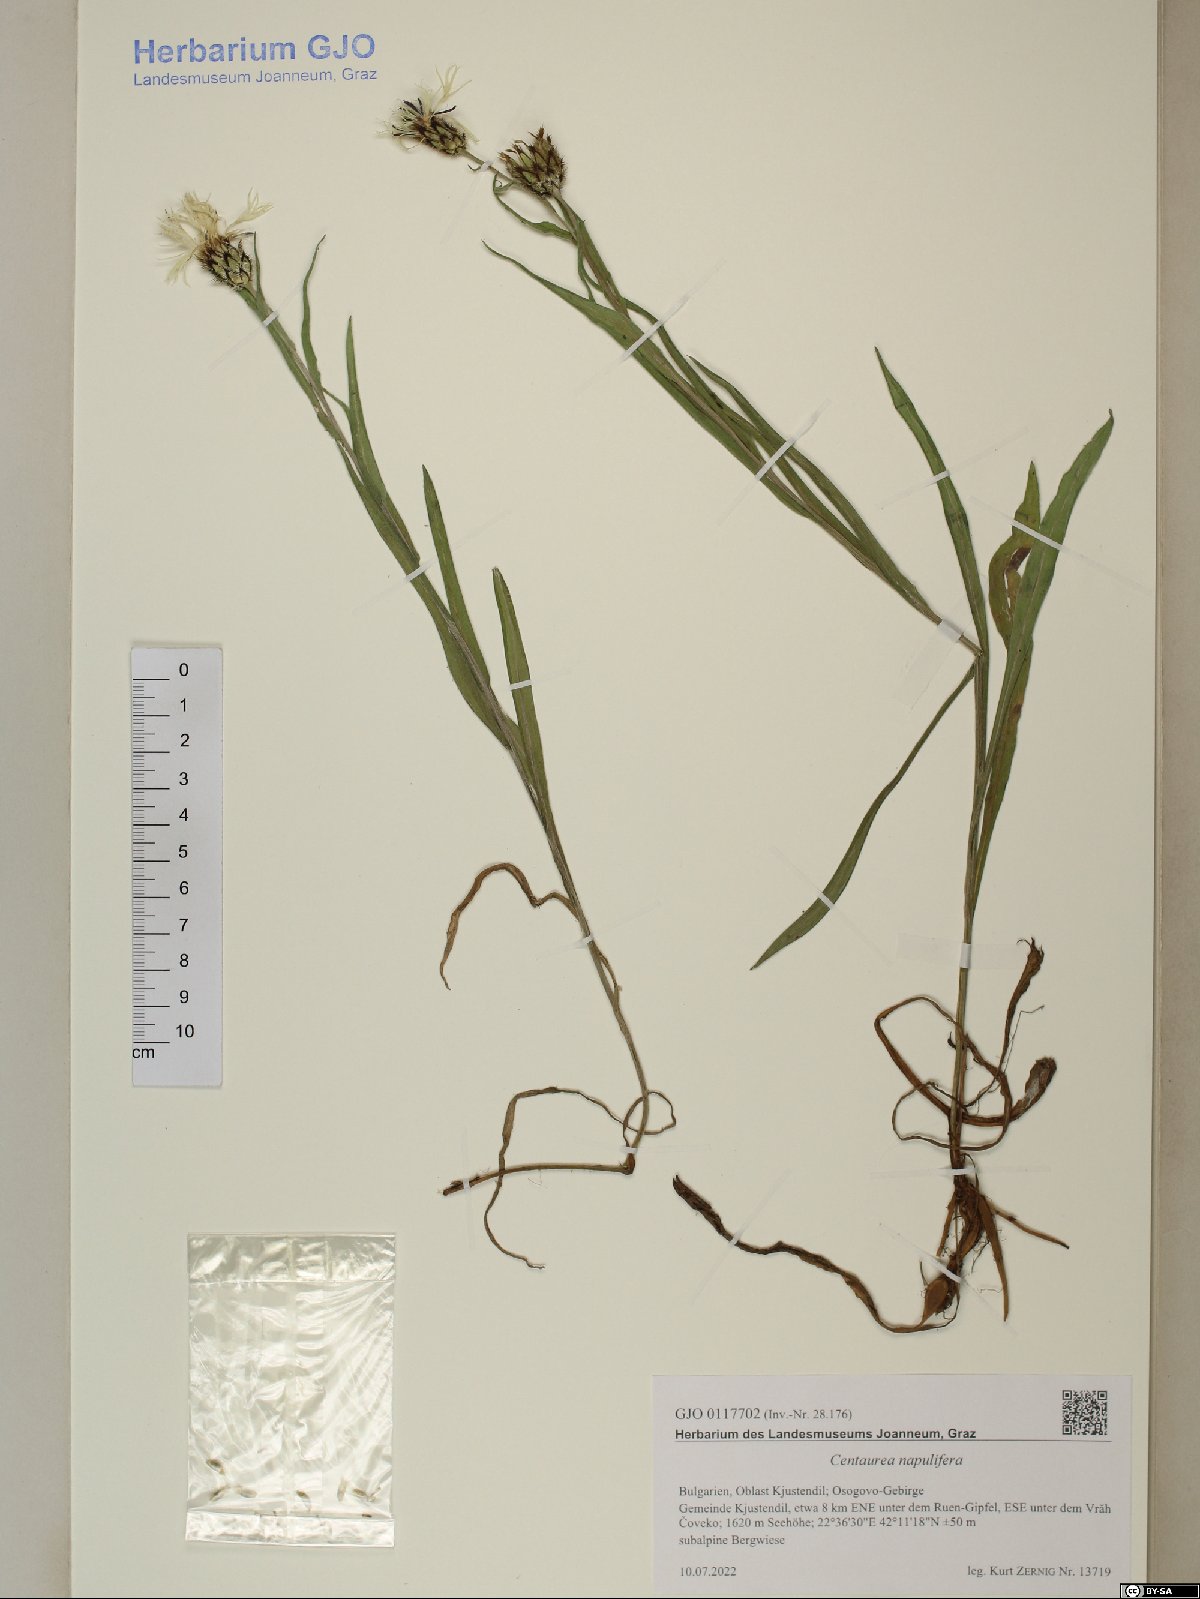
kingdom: Plantae
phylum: Tracheophyta
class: Magnoliopsida
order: Asterales
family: Asteraceae
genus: Centaurea
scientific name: Centaurea napulifera
